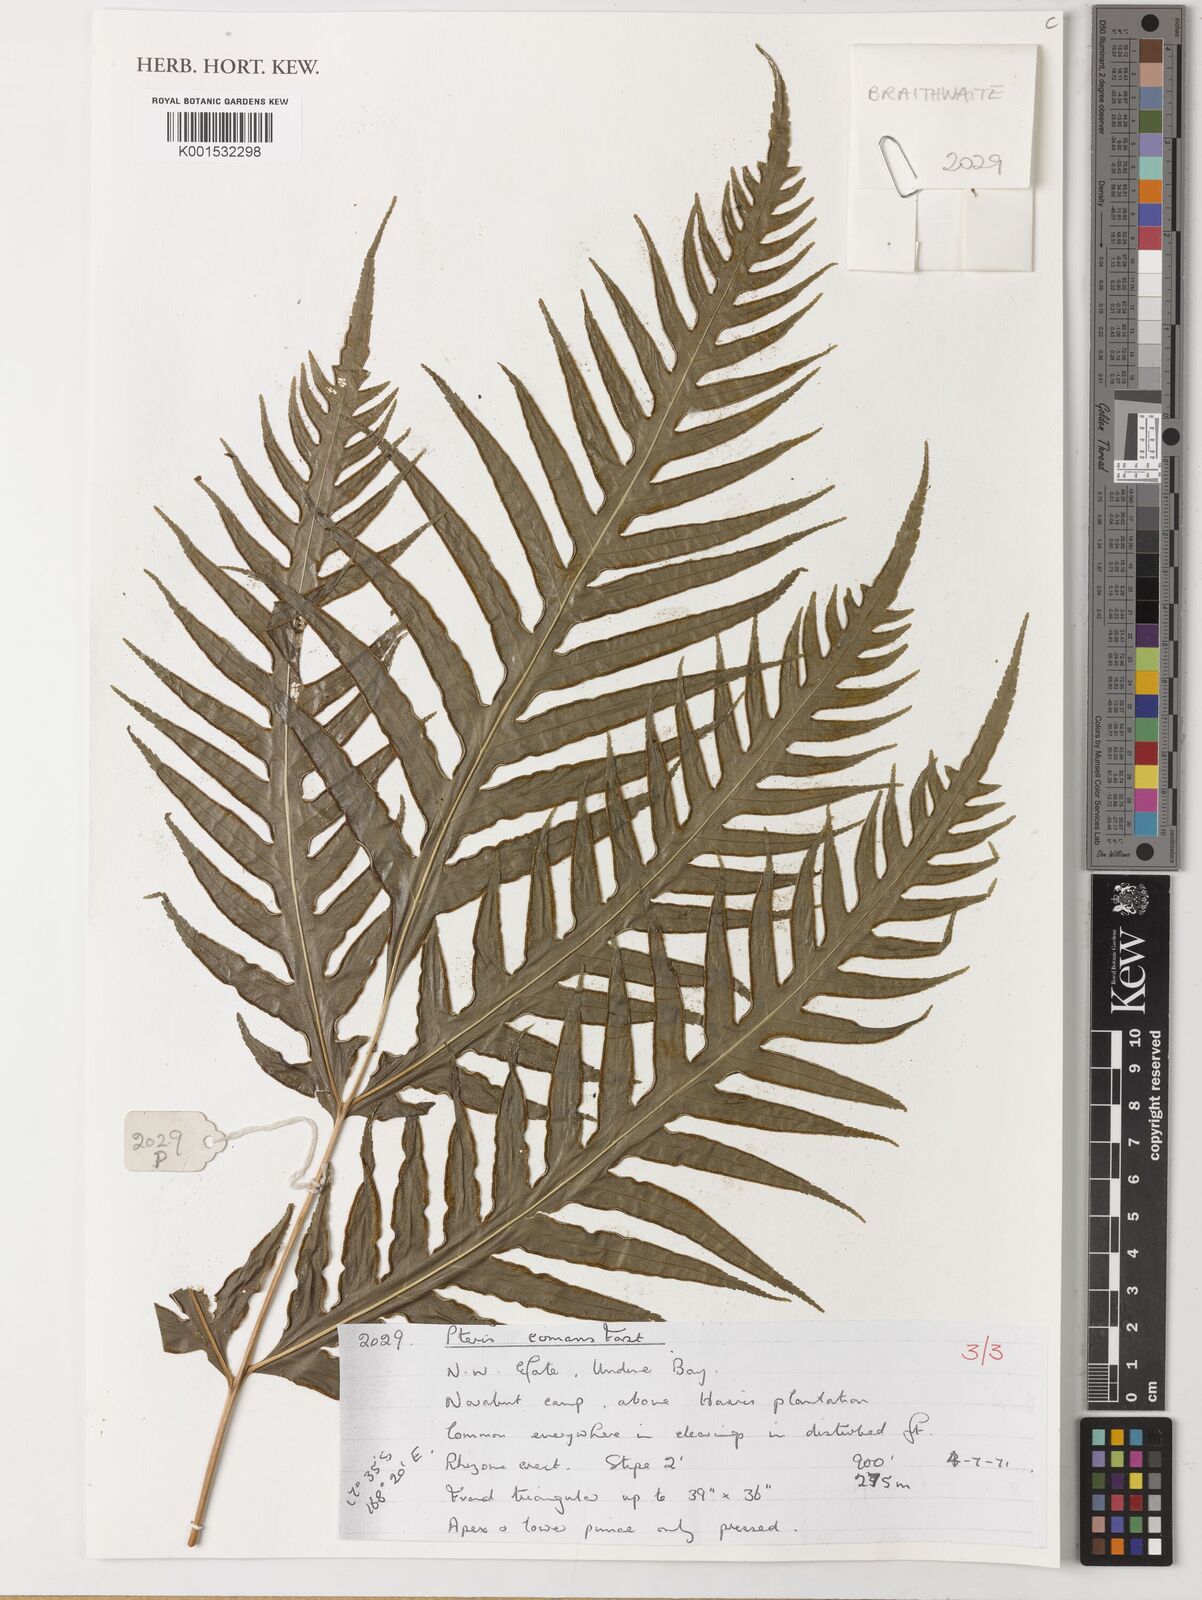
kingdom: Plantae
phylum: Tracheophyta
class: Polypodiopsida
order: Polypodiales
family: Pteridaceae
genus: Pteris
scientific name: Pteris comans
